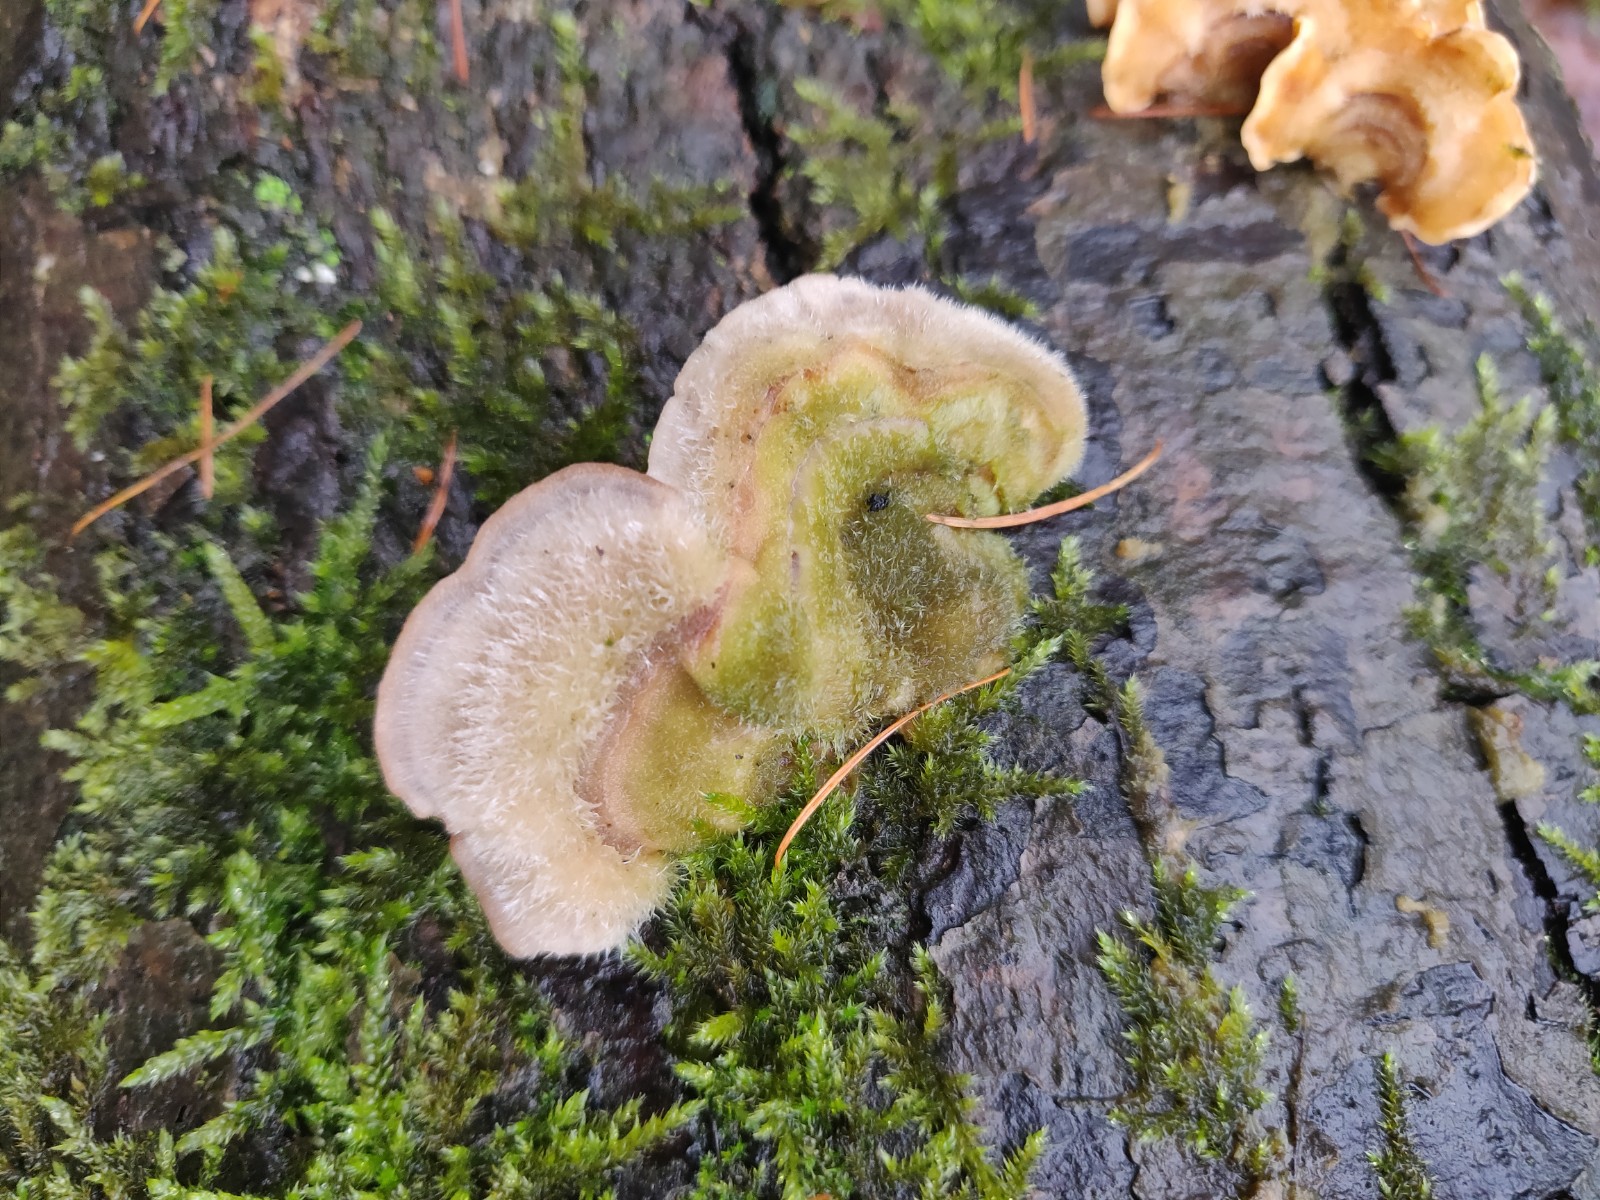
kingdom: Fungi
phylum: Basidiomycota
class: Agaricomycetes
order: Polyporales
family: Polyporaceae
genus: Trametes
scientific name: Trametes hirsuta
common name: håret læderporesvamp
